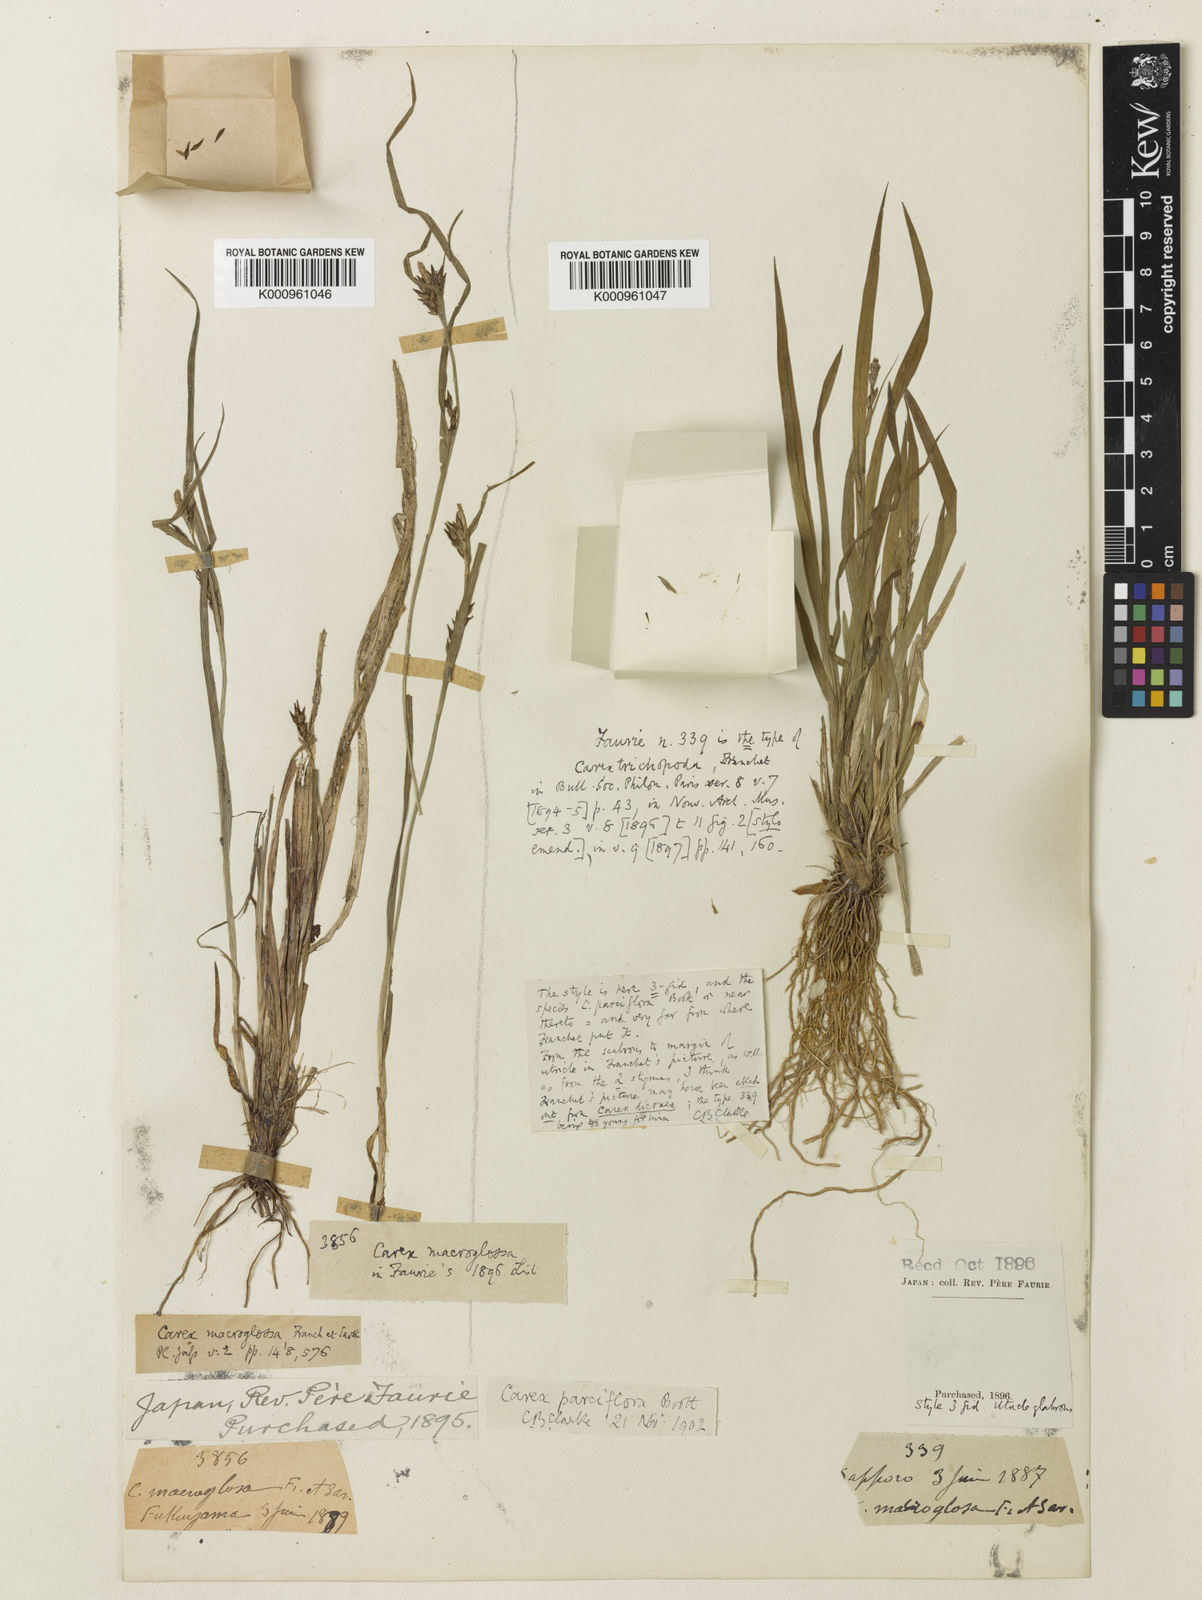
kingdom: Plantae
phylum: Tracheophyta
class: Liliopsida
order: Poales
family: Cyperaceae
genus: Carex
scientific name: Carex jackiana
